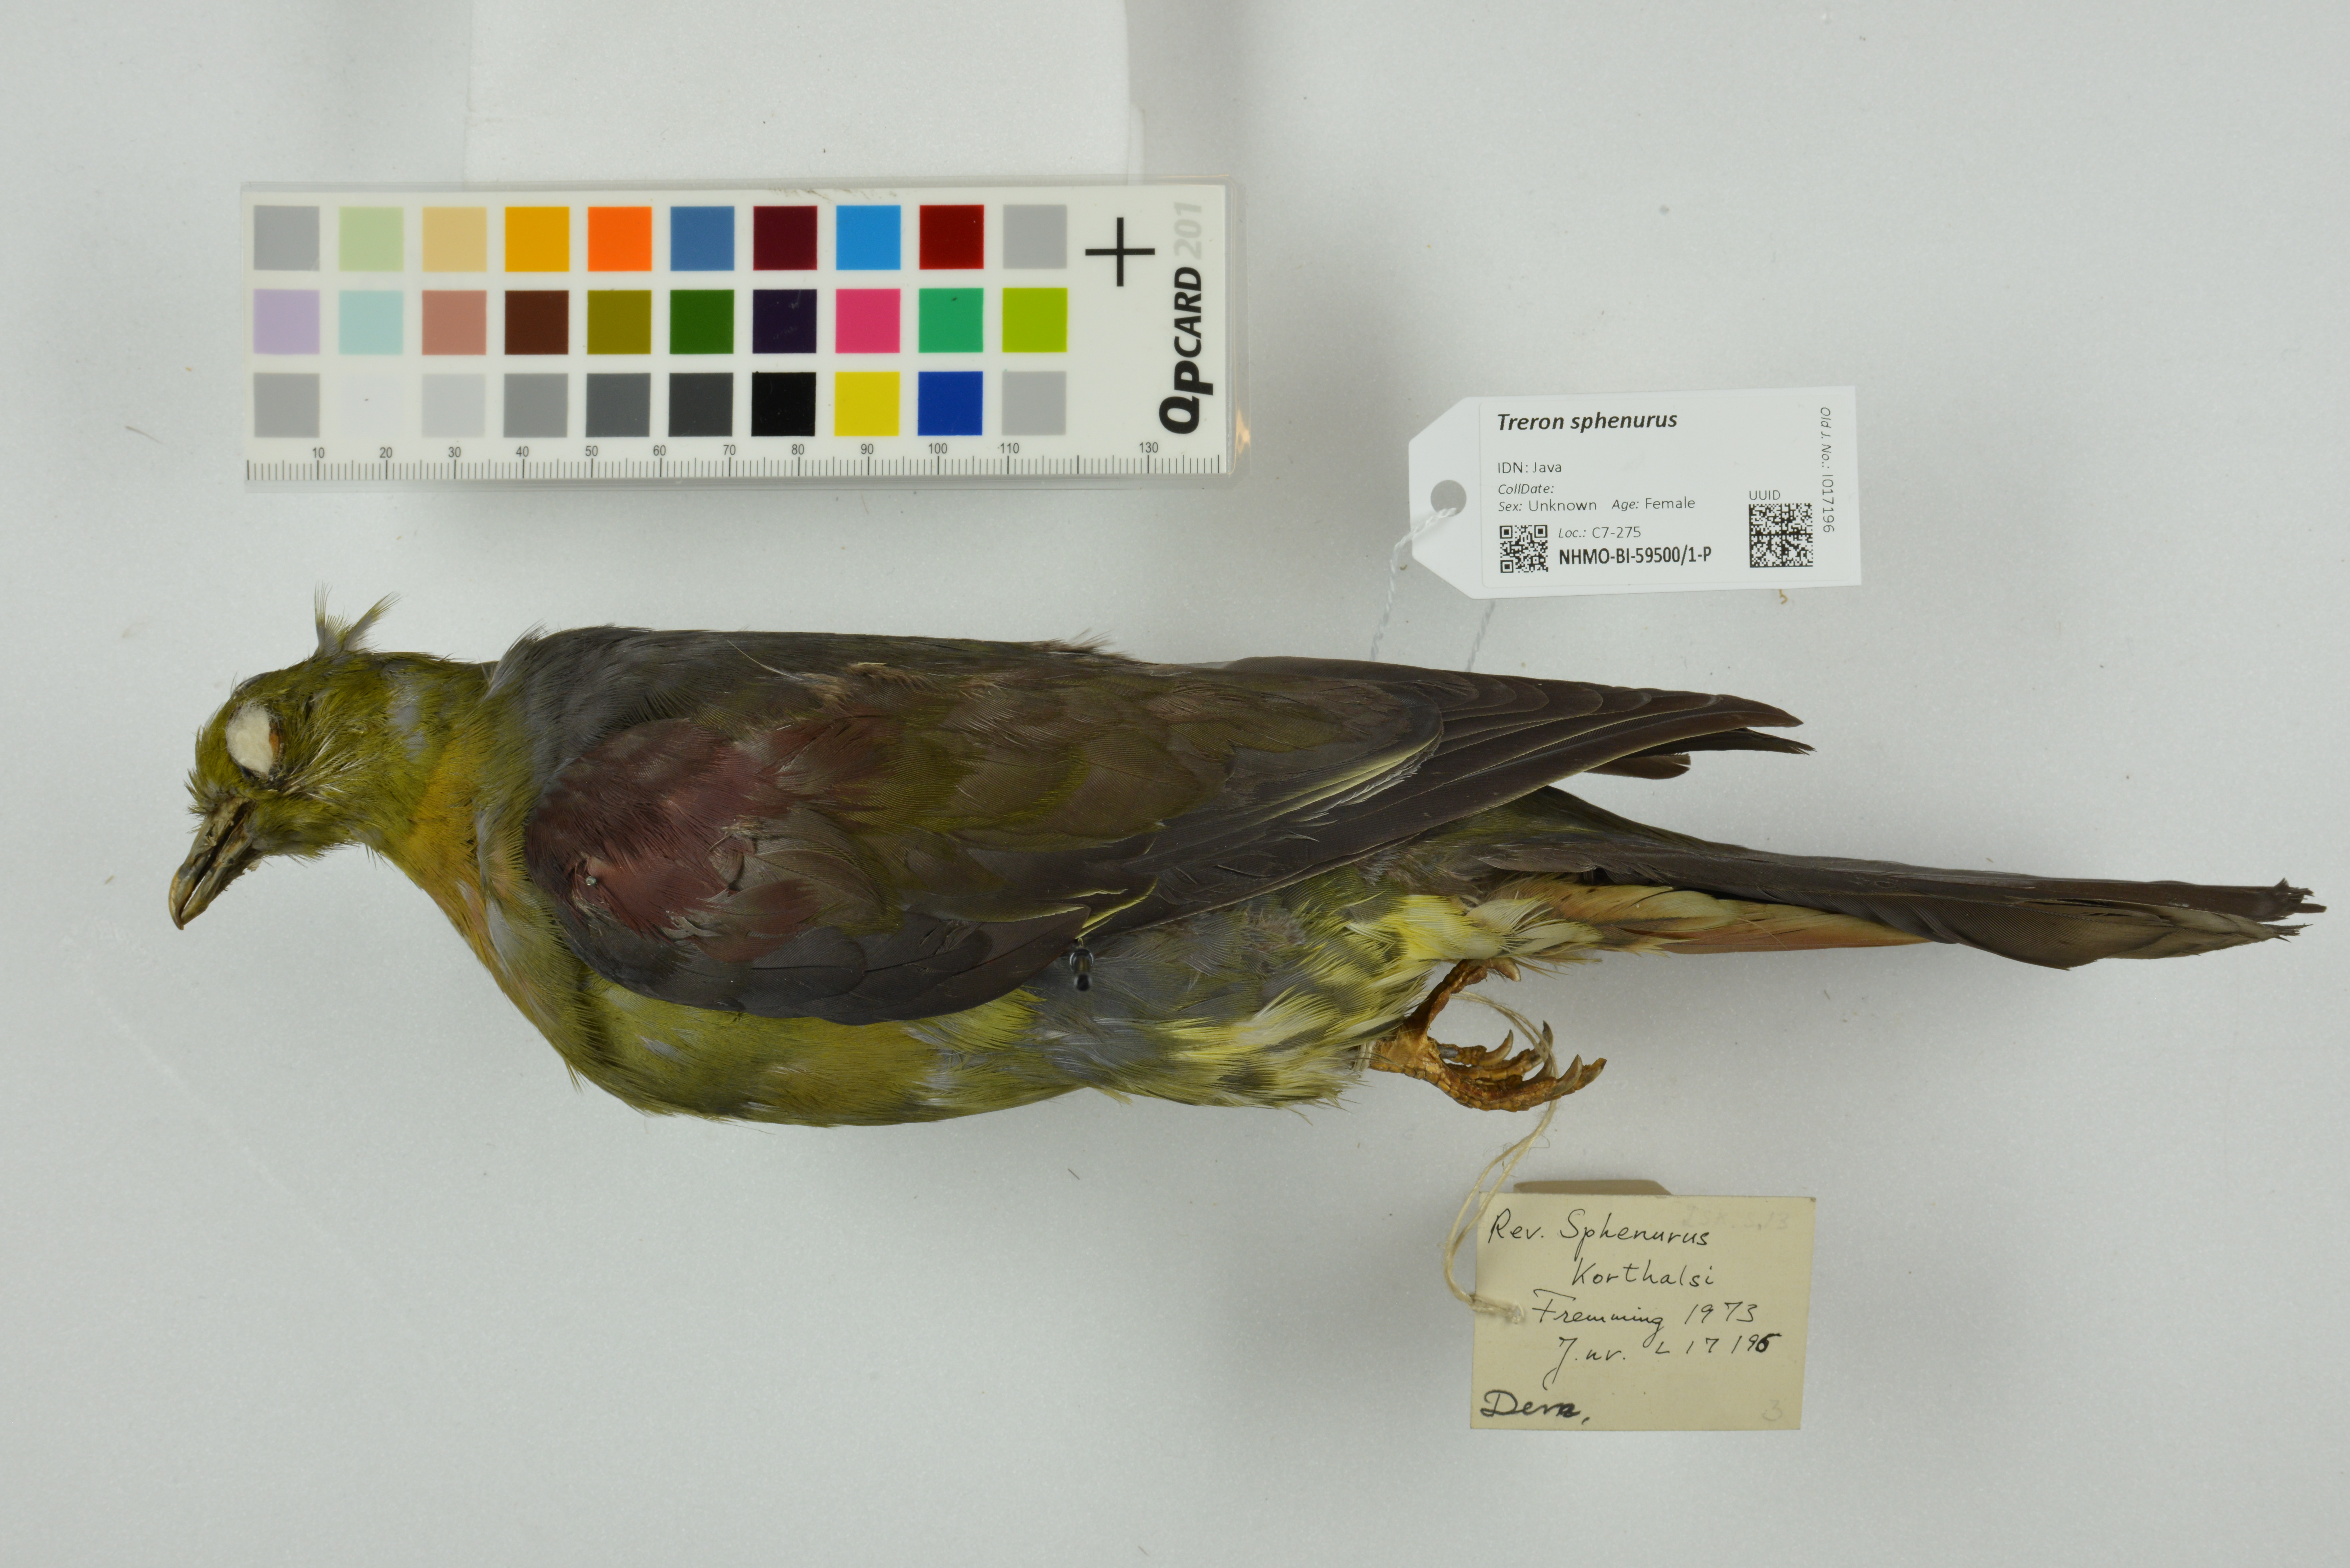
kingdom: Animalia
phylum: Chordata
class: Aves
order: Columbiformes
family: Columbidae
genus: Treron
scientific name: Treron sphenurus
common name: Wedge-tailed green pigeon
